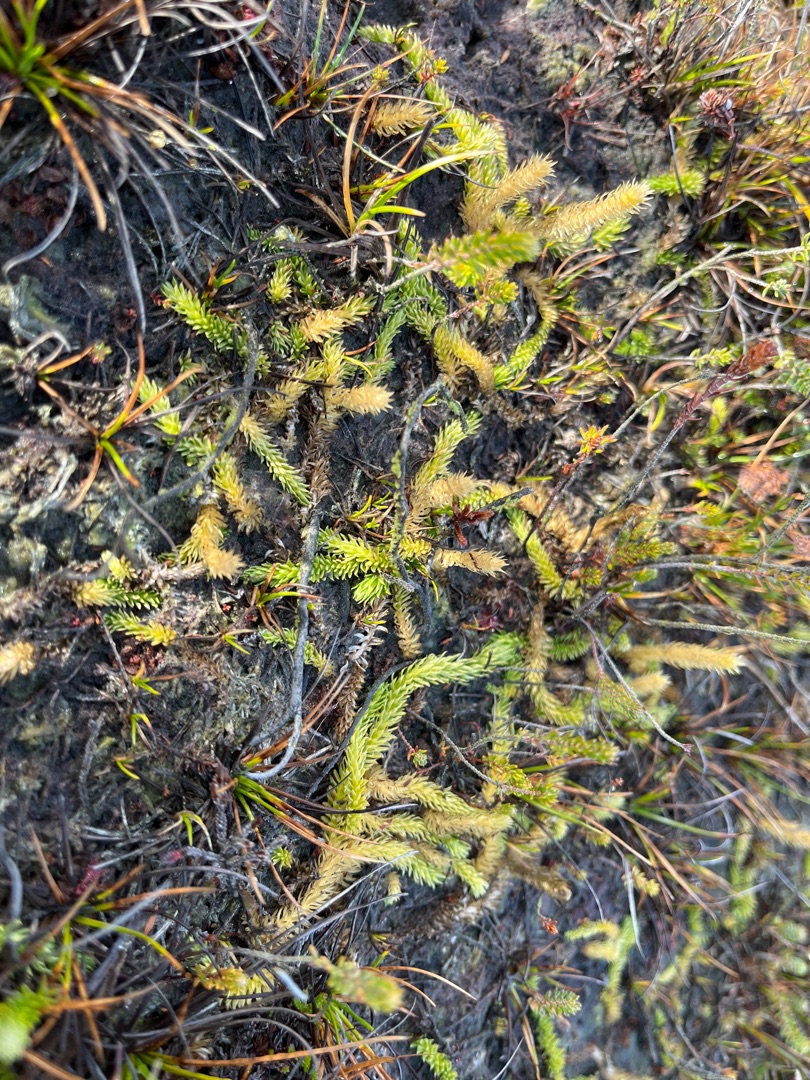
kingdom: Plantae
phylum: Tracheophyta
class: Lycopodiopsida
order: Lycopodiales
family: Lycopodiaceae
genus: Lycopodiella
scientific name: Lycopodiella inundata
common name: Liden ulvefod
